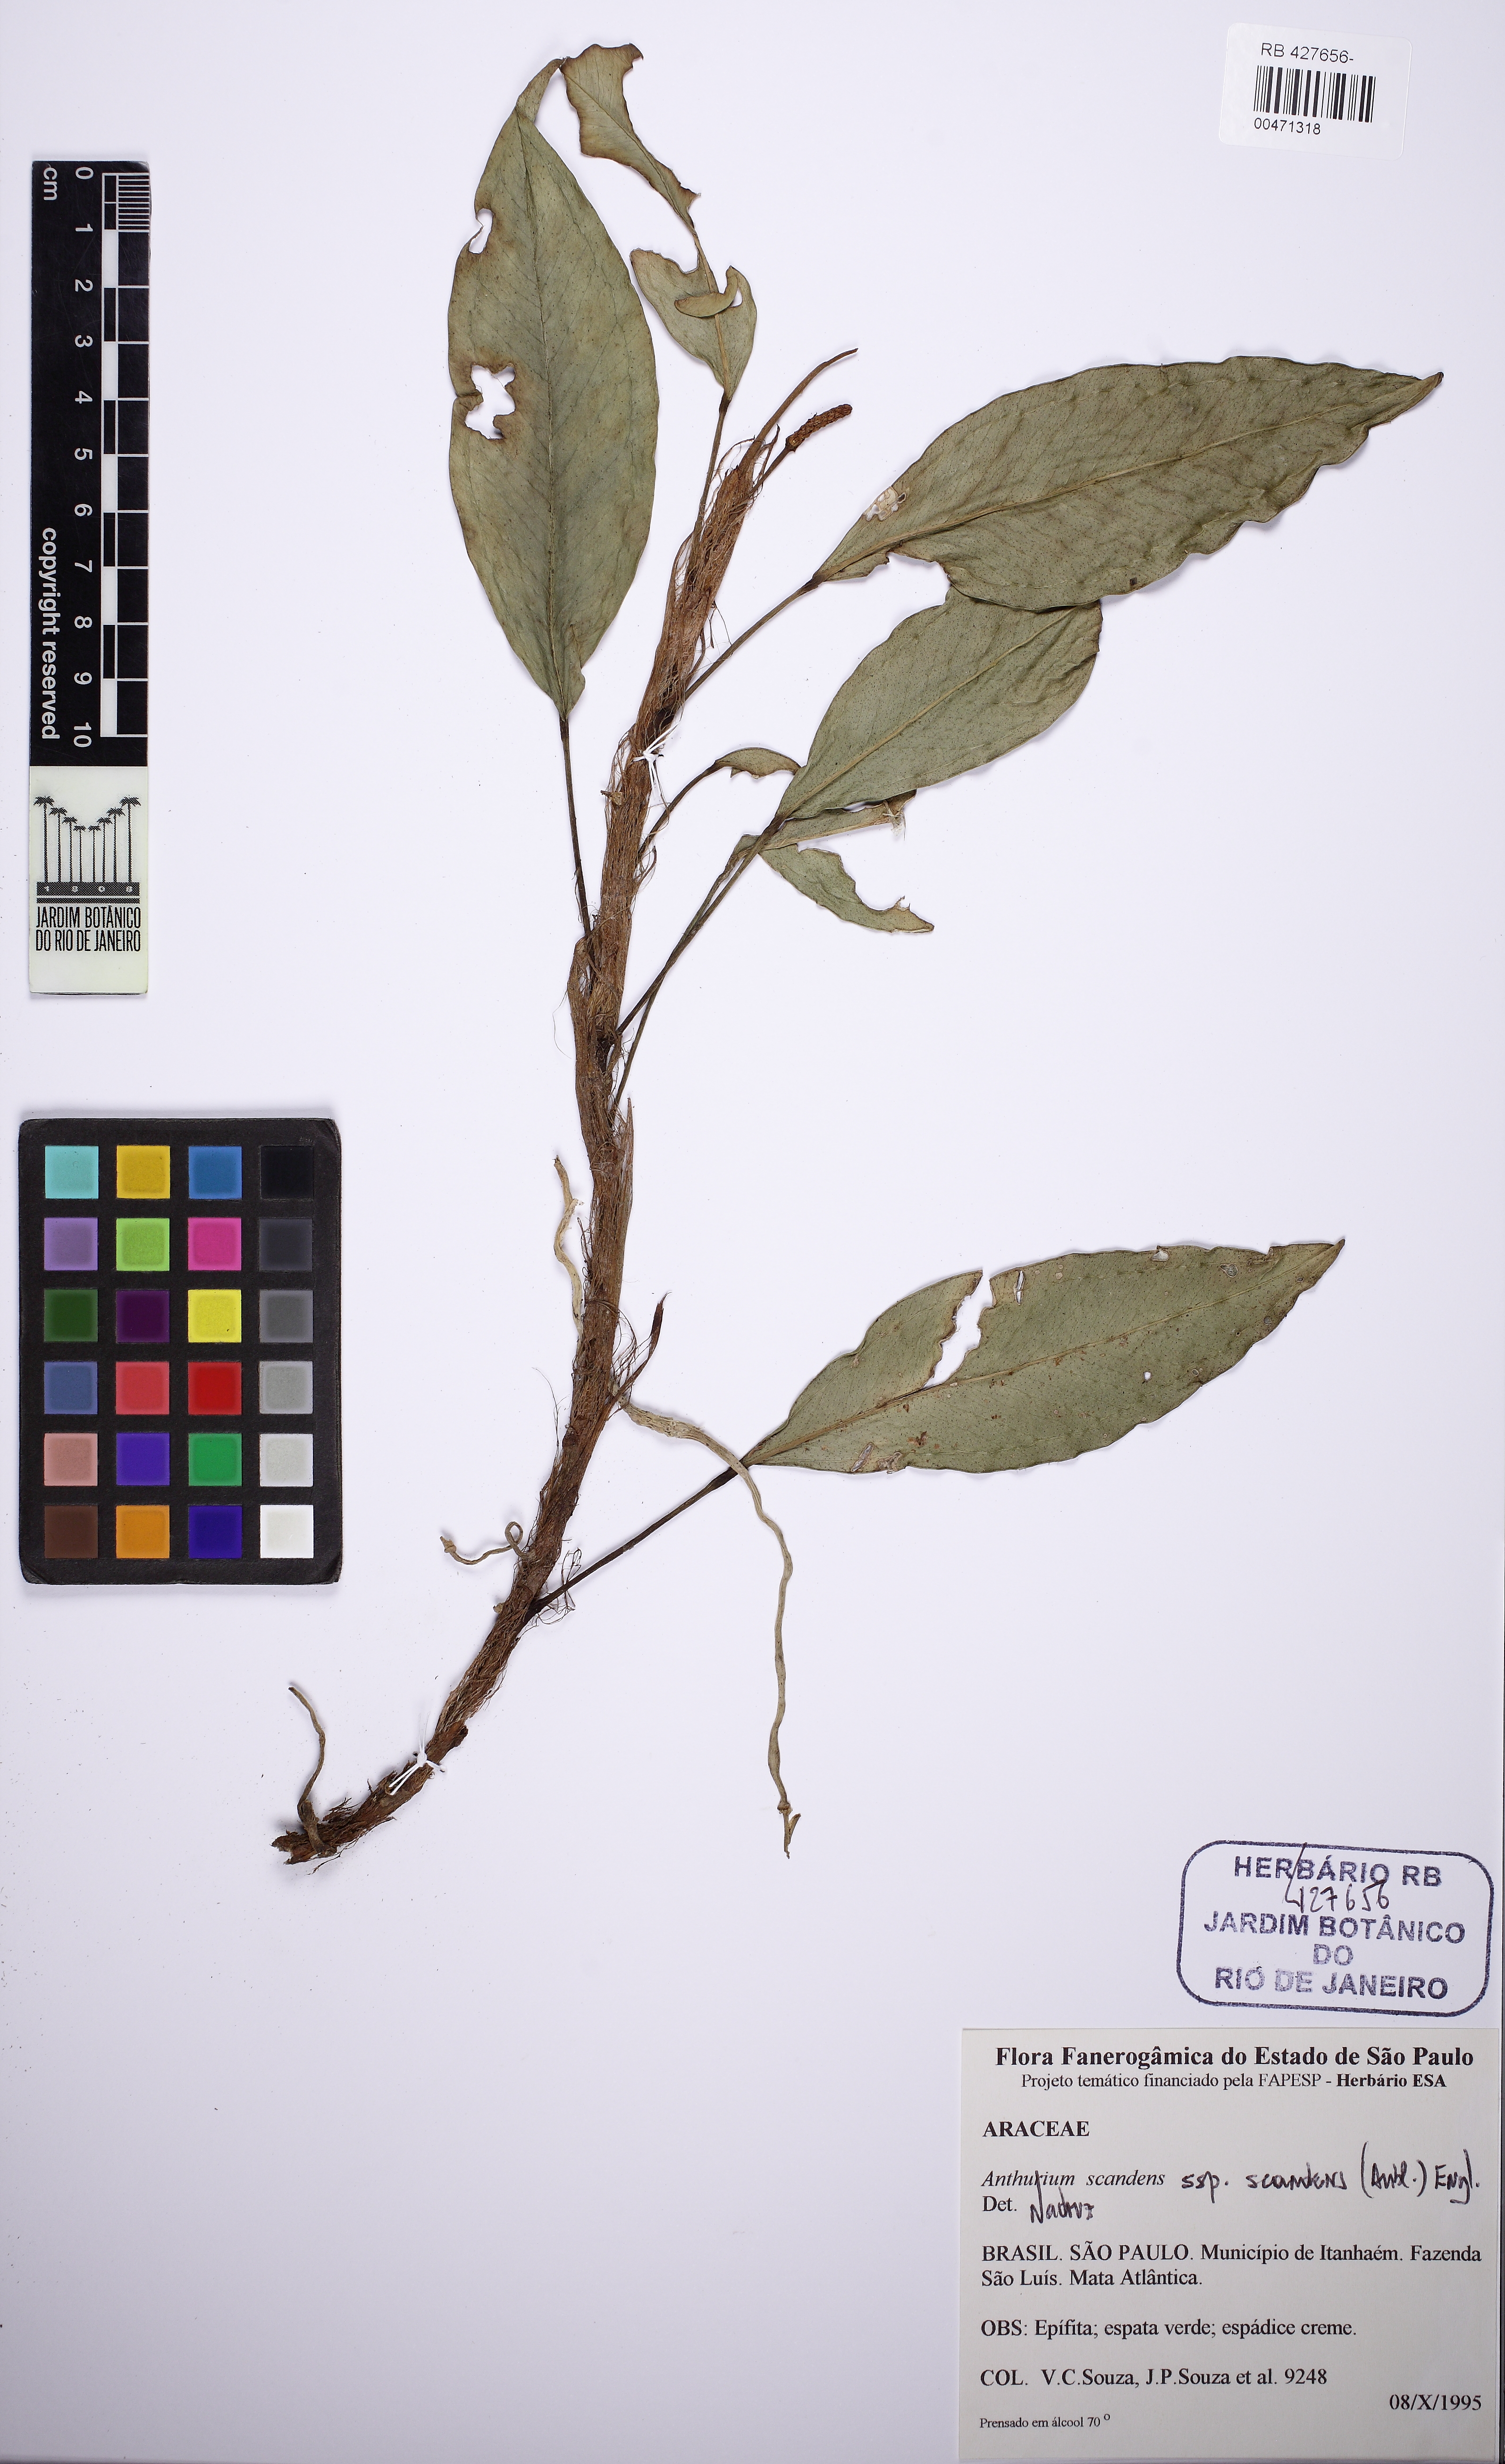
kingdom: Plantae
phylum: Tracheophyta
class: Liliopsida
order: Alismatales
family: Araceae
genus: Anthurium
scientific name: Anthurium scandens
